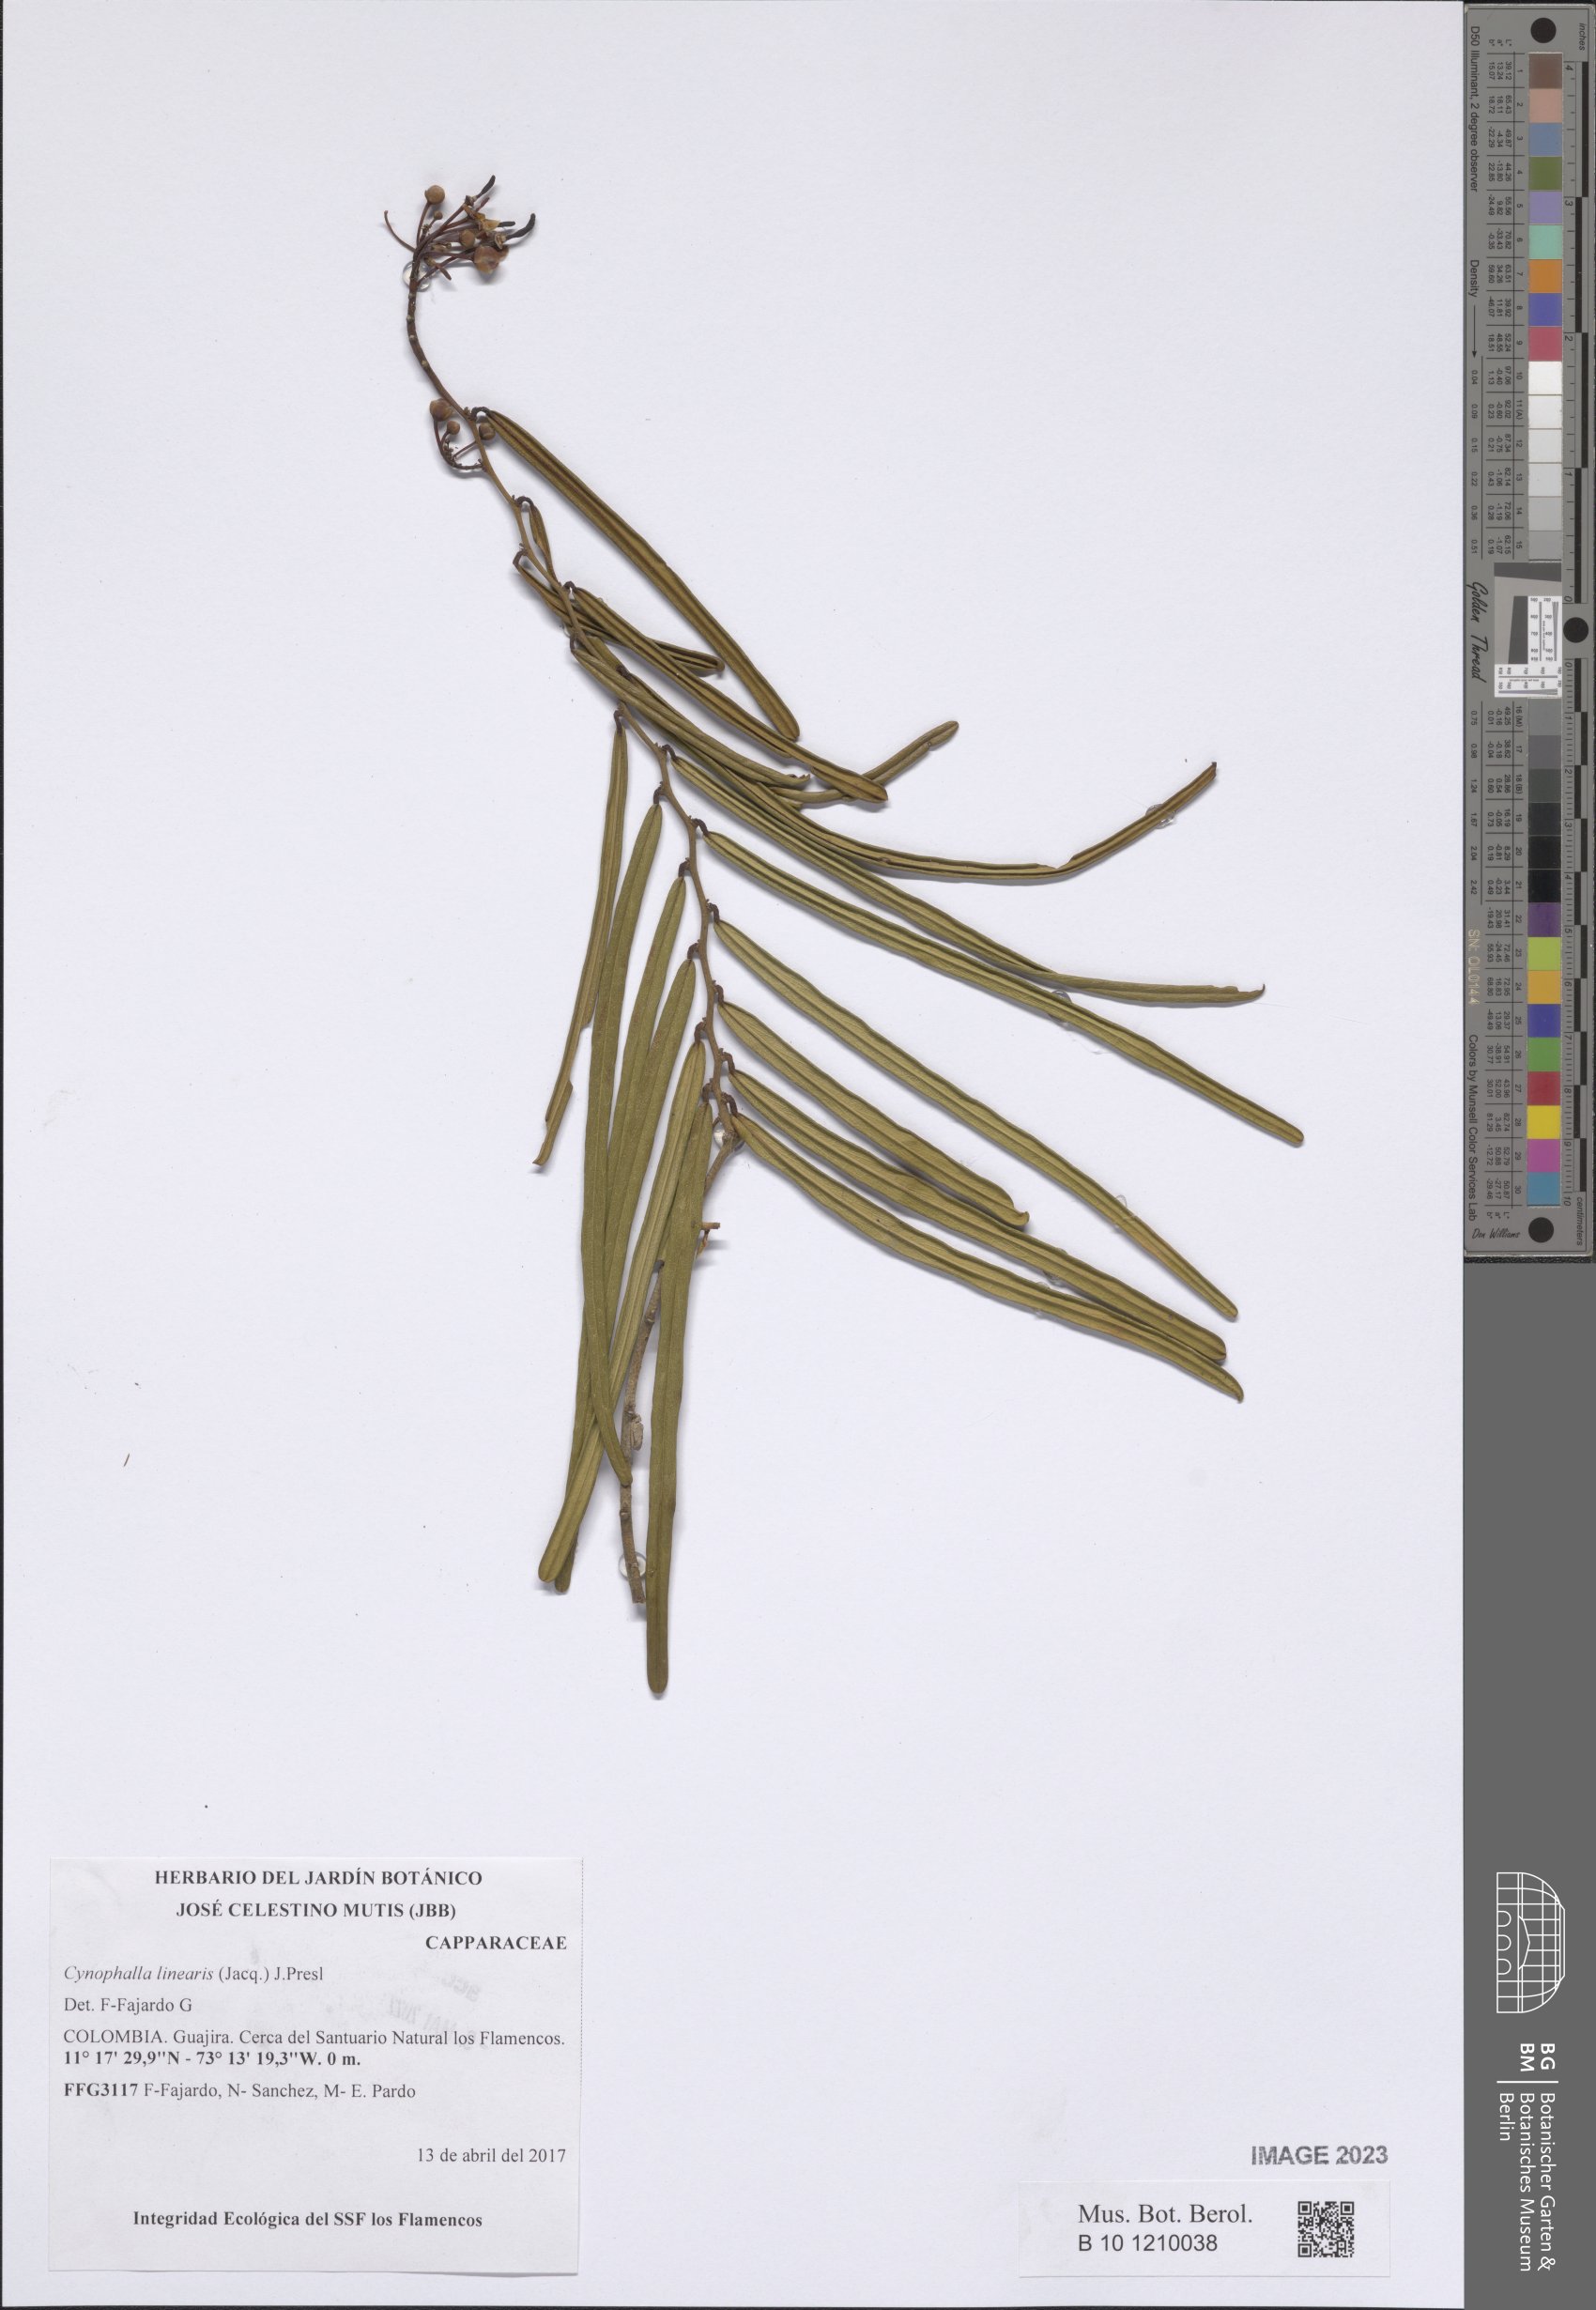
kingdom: Plantae
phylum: Tracheophyta
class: Magnoliopsida
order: Brassicales
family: Capparaceae
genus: Cynophalla
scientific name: Cynophalla linearis
